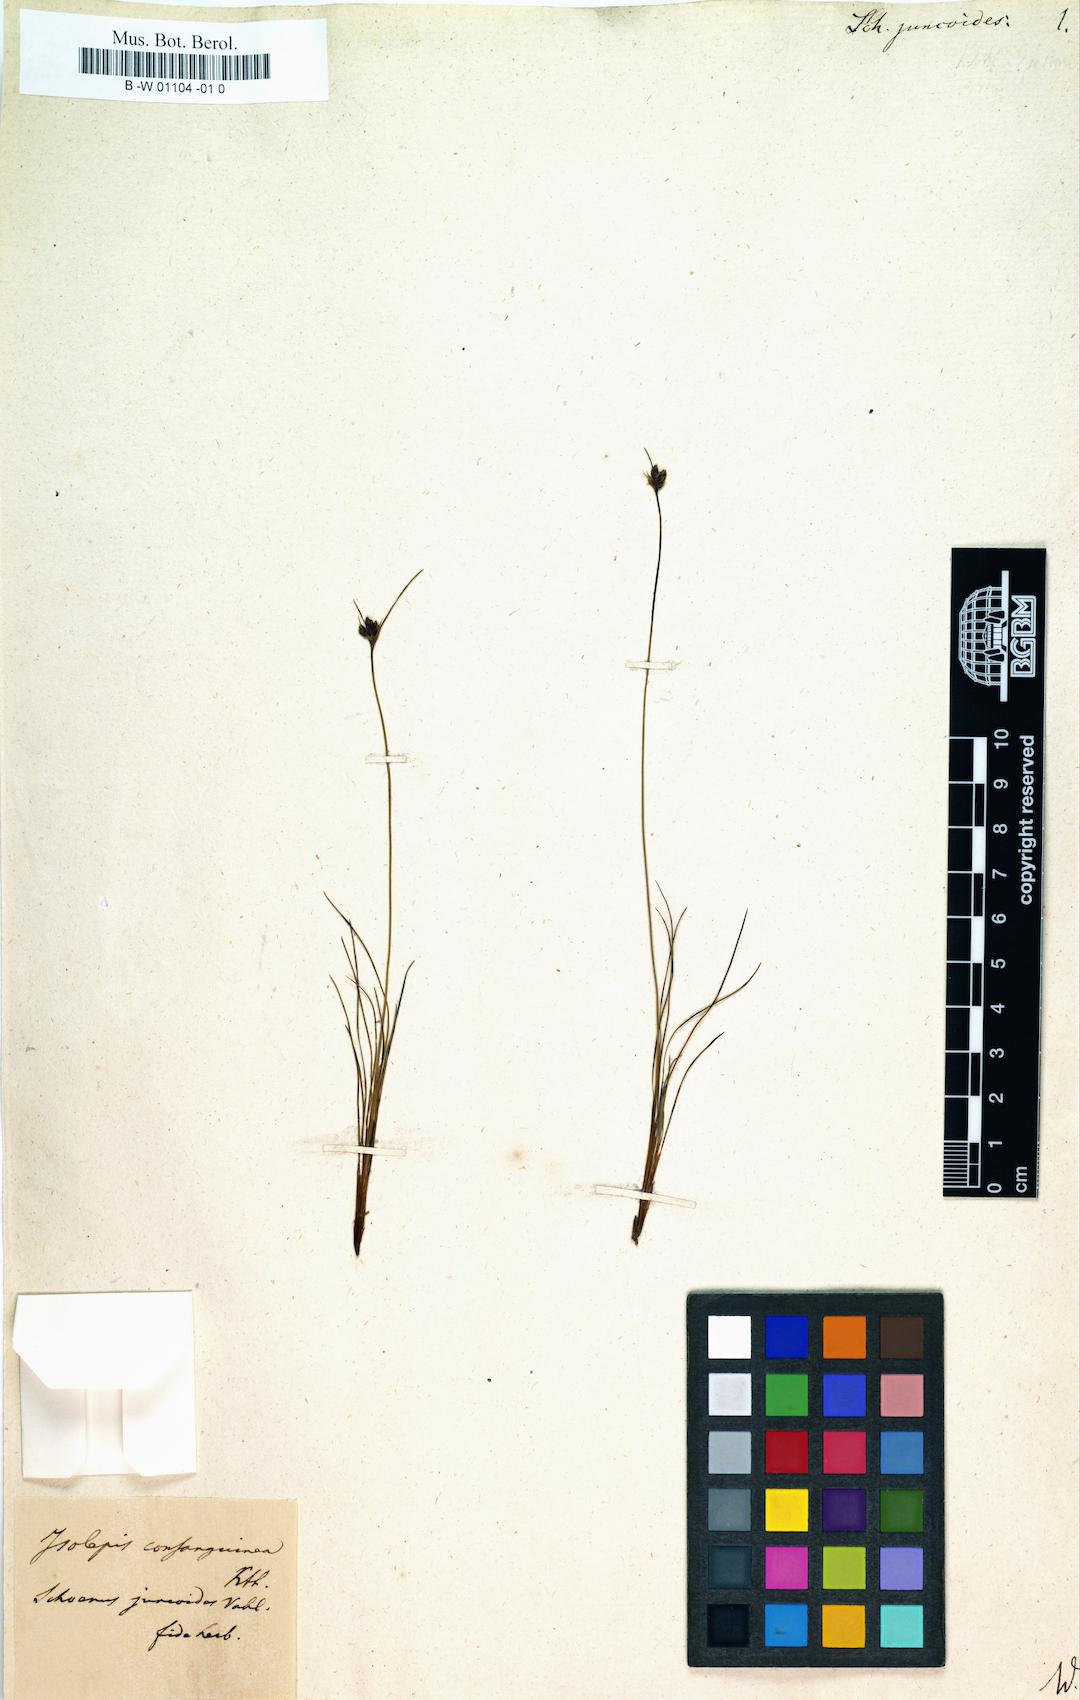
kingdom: Plantae
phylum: Tracheophyta
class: Liliopsida
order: Poales
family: Cyperaceae
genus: Bulbostylis
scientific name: Bulbostylis juncoides
